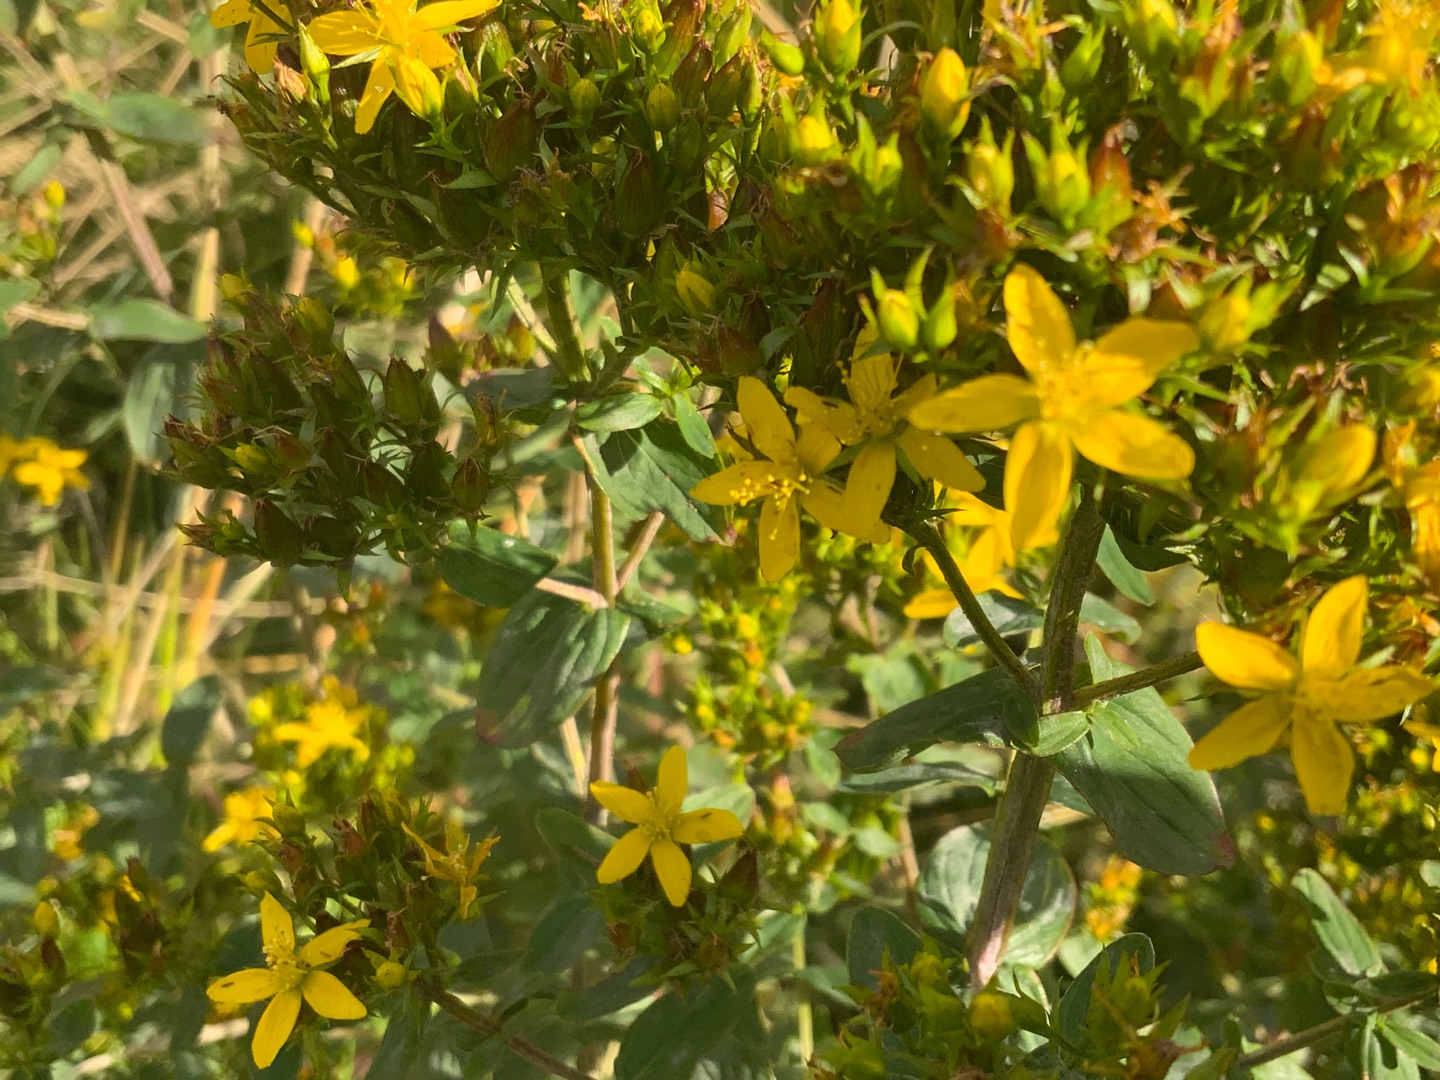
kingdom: Plantae
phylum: Tracheophyta
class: Magnoliopsida
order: Malpighiales
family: Hypericaceae
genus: Hypericum
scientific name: Hypericum tetrapterum
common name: Vinget perikon
